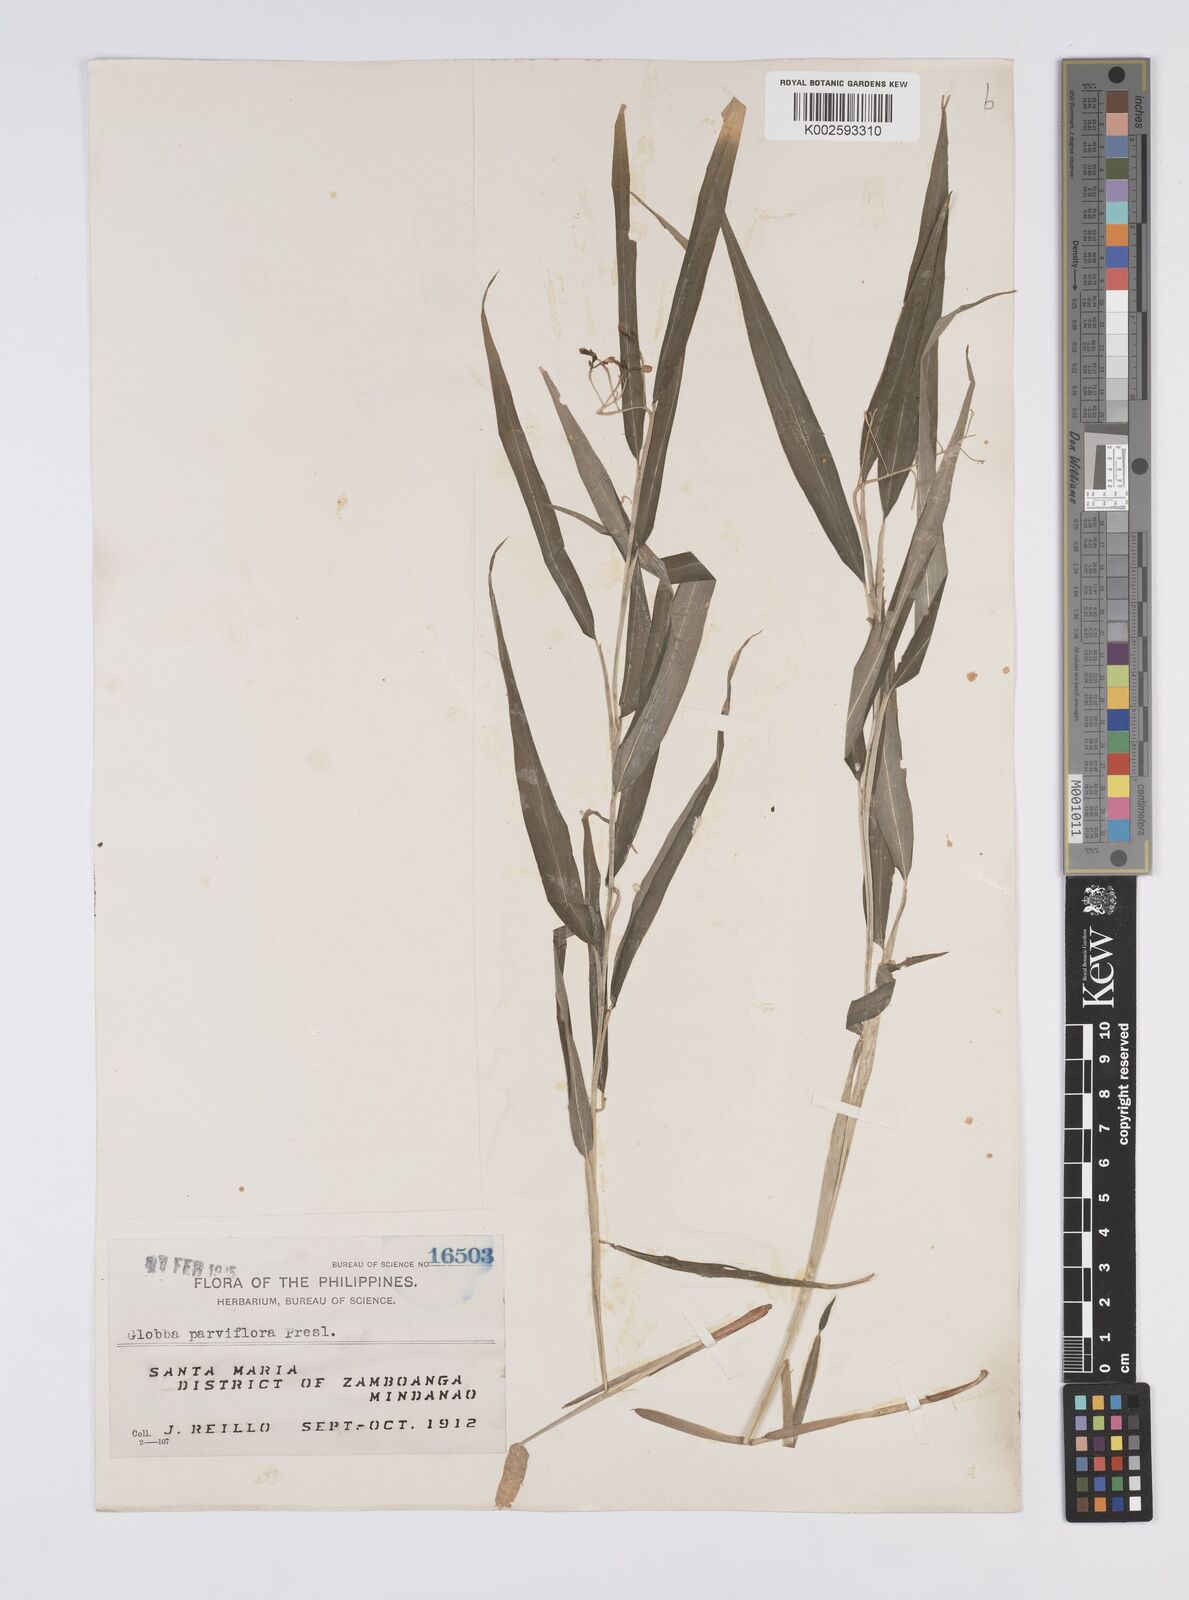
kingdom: Plantae
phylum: Tracheophyta
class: Liliopsida
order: Zingiberales
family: Zingiberaceae
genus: Globba
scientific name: Globba parviflora
